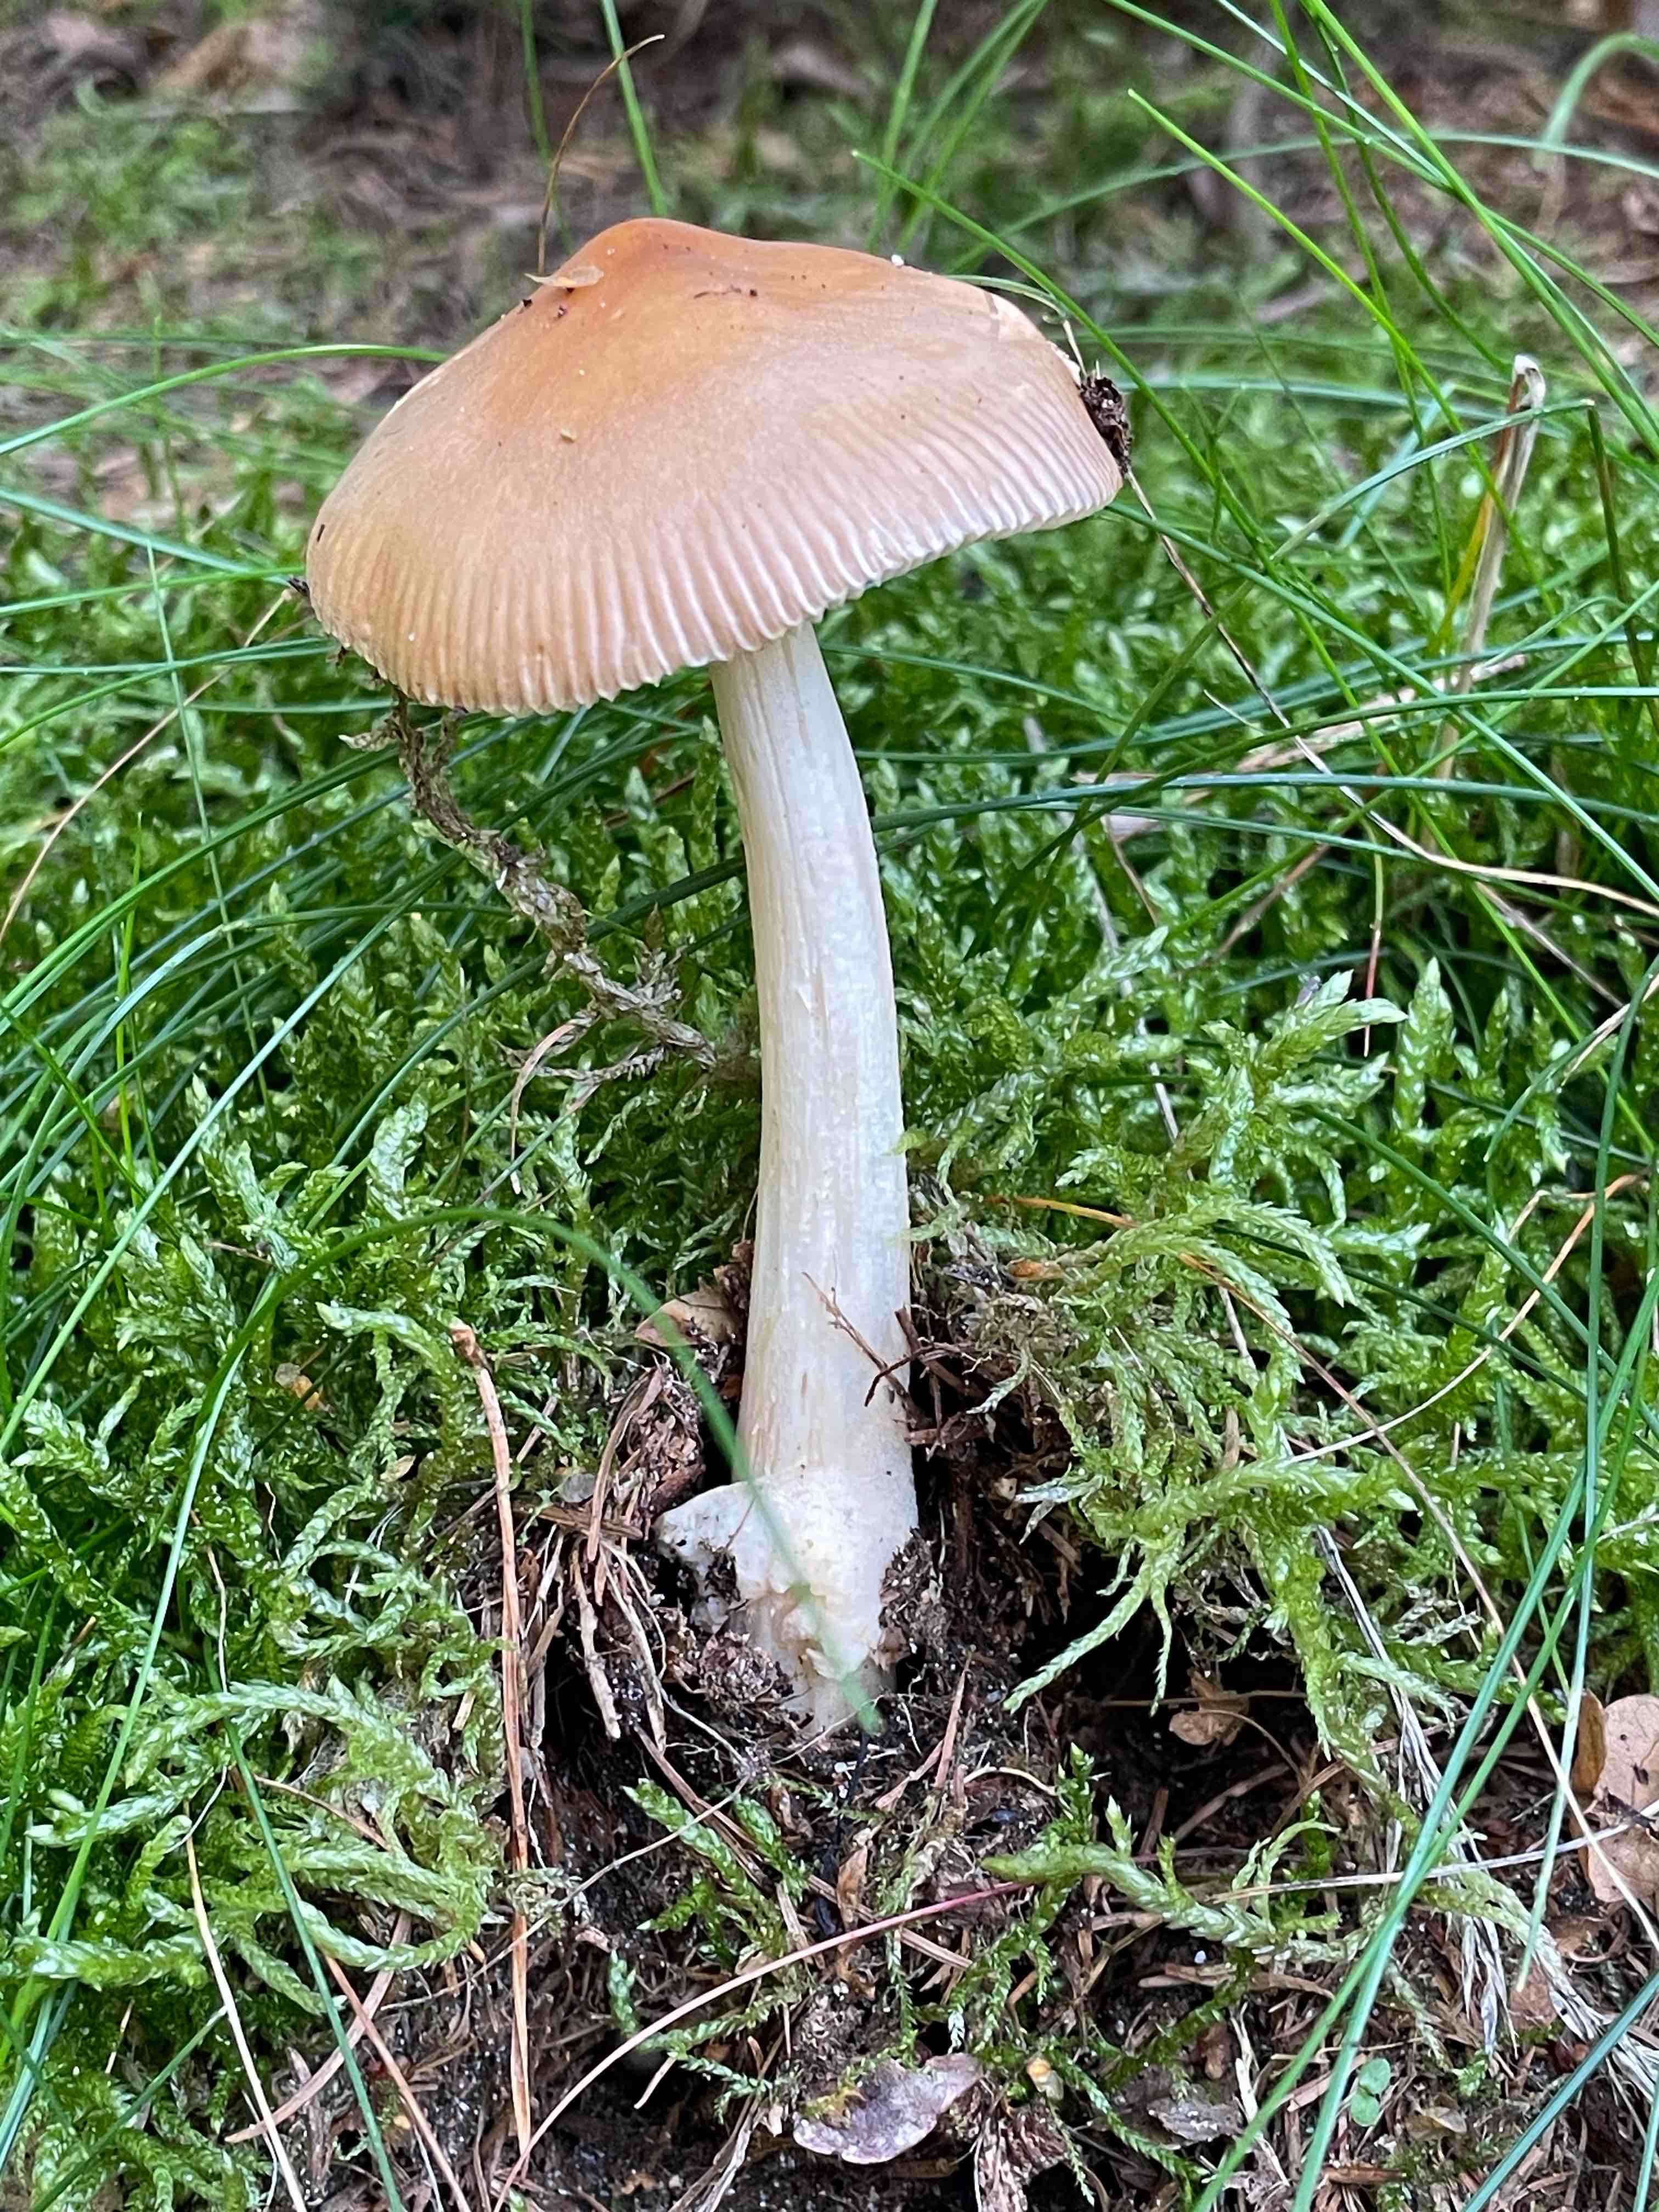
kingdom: Fungi
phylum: Basidiomycota
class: Agaricomycetes
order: Agaricales
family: Amanitaceae
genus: Amanita
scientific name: Amanita fulva
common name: brun kam-fluesvamp
